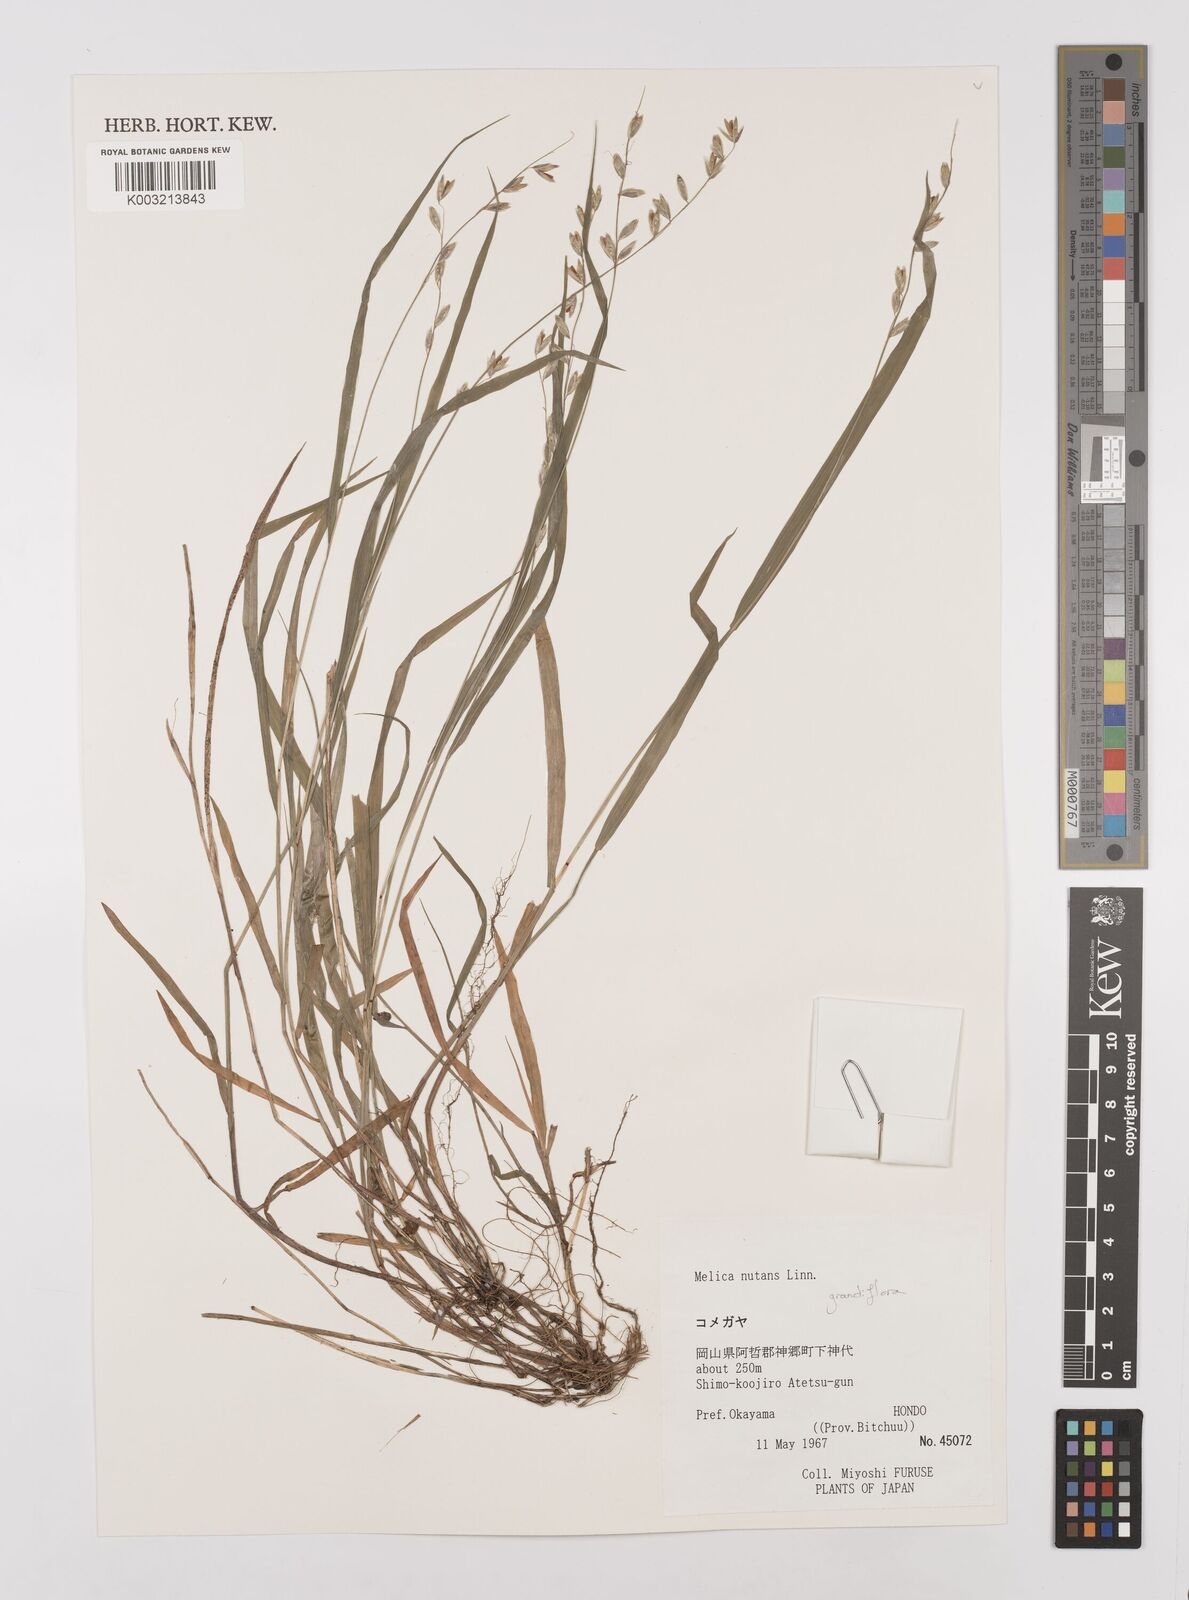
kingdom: Plantae
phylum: Tracheophyta
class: Liliopsida
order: Poales
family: Poaceae
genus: Melica
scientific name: Melica nutans
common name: Mountain melick
